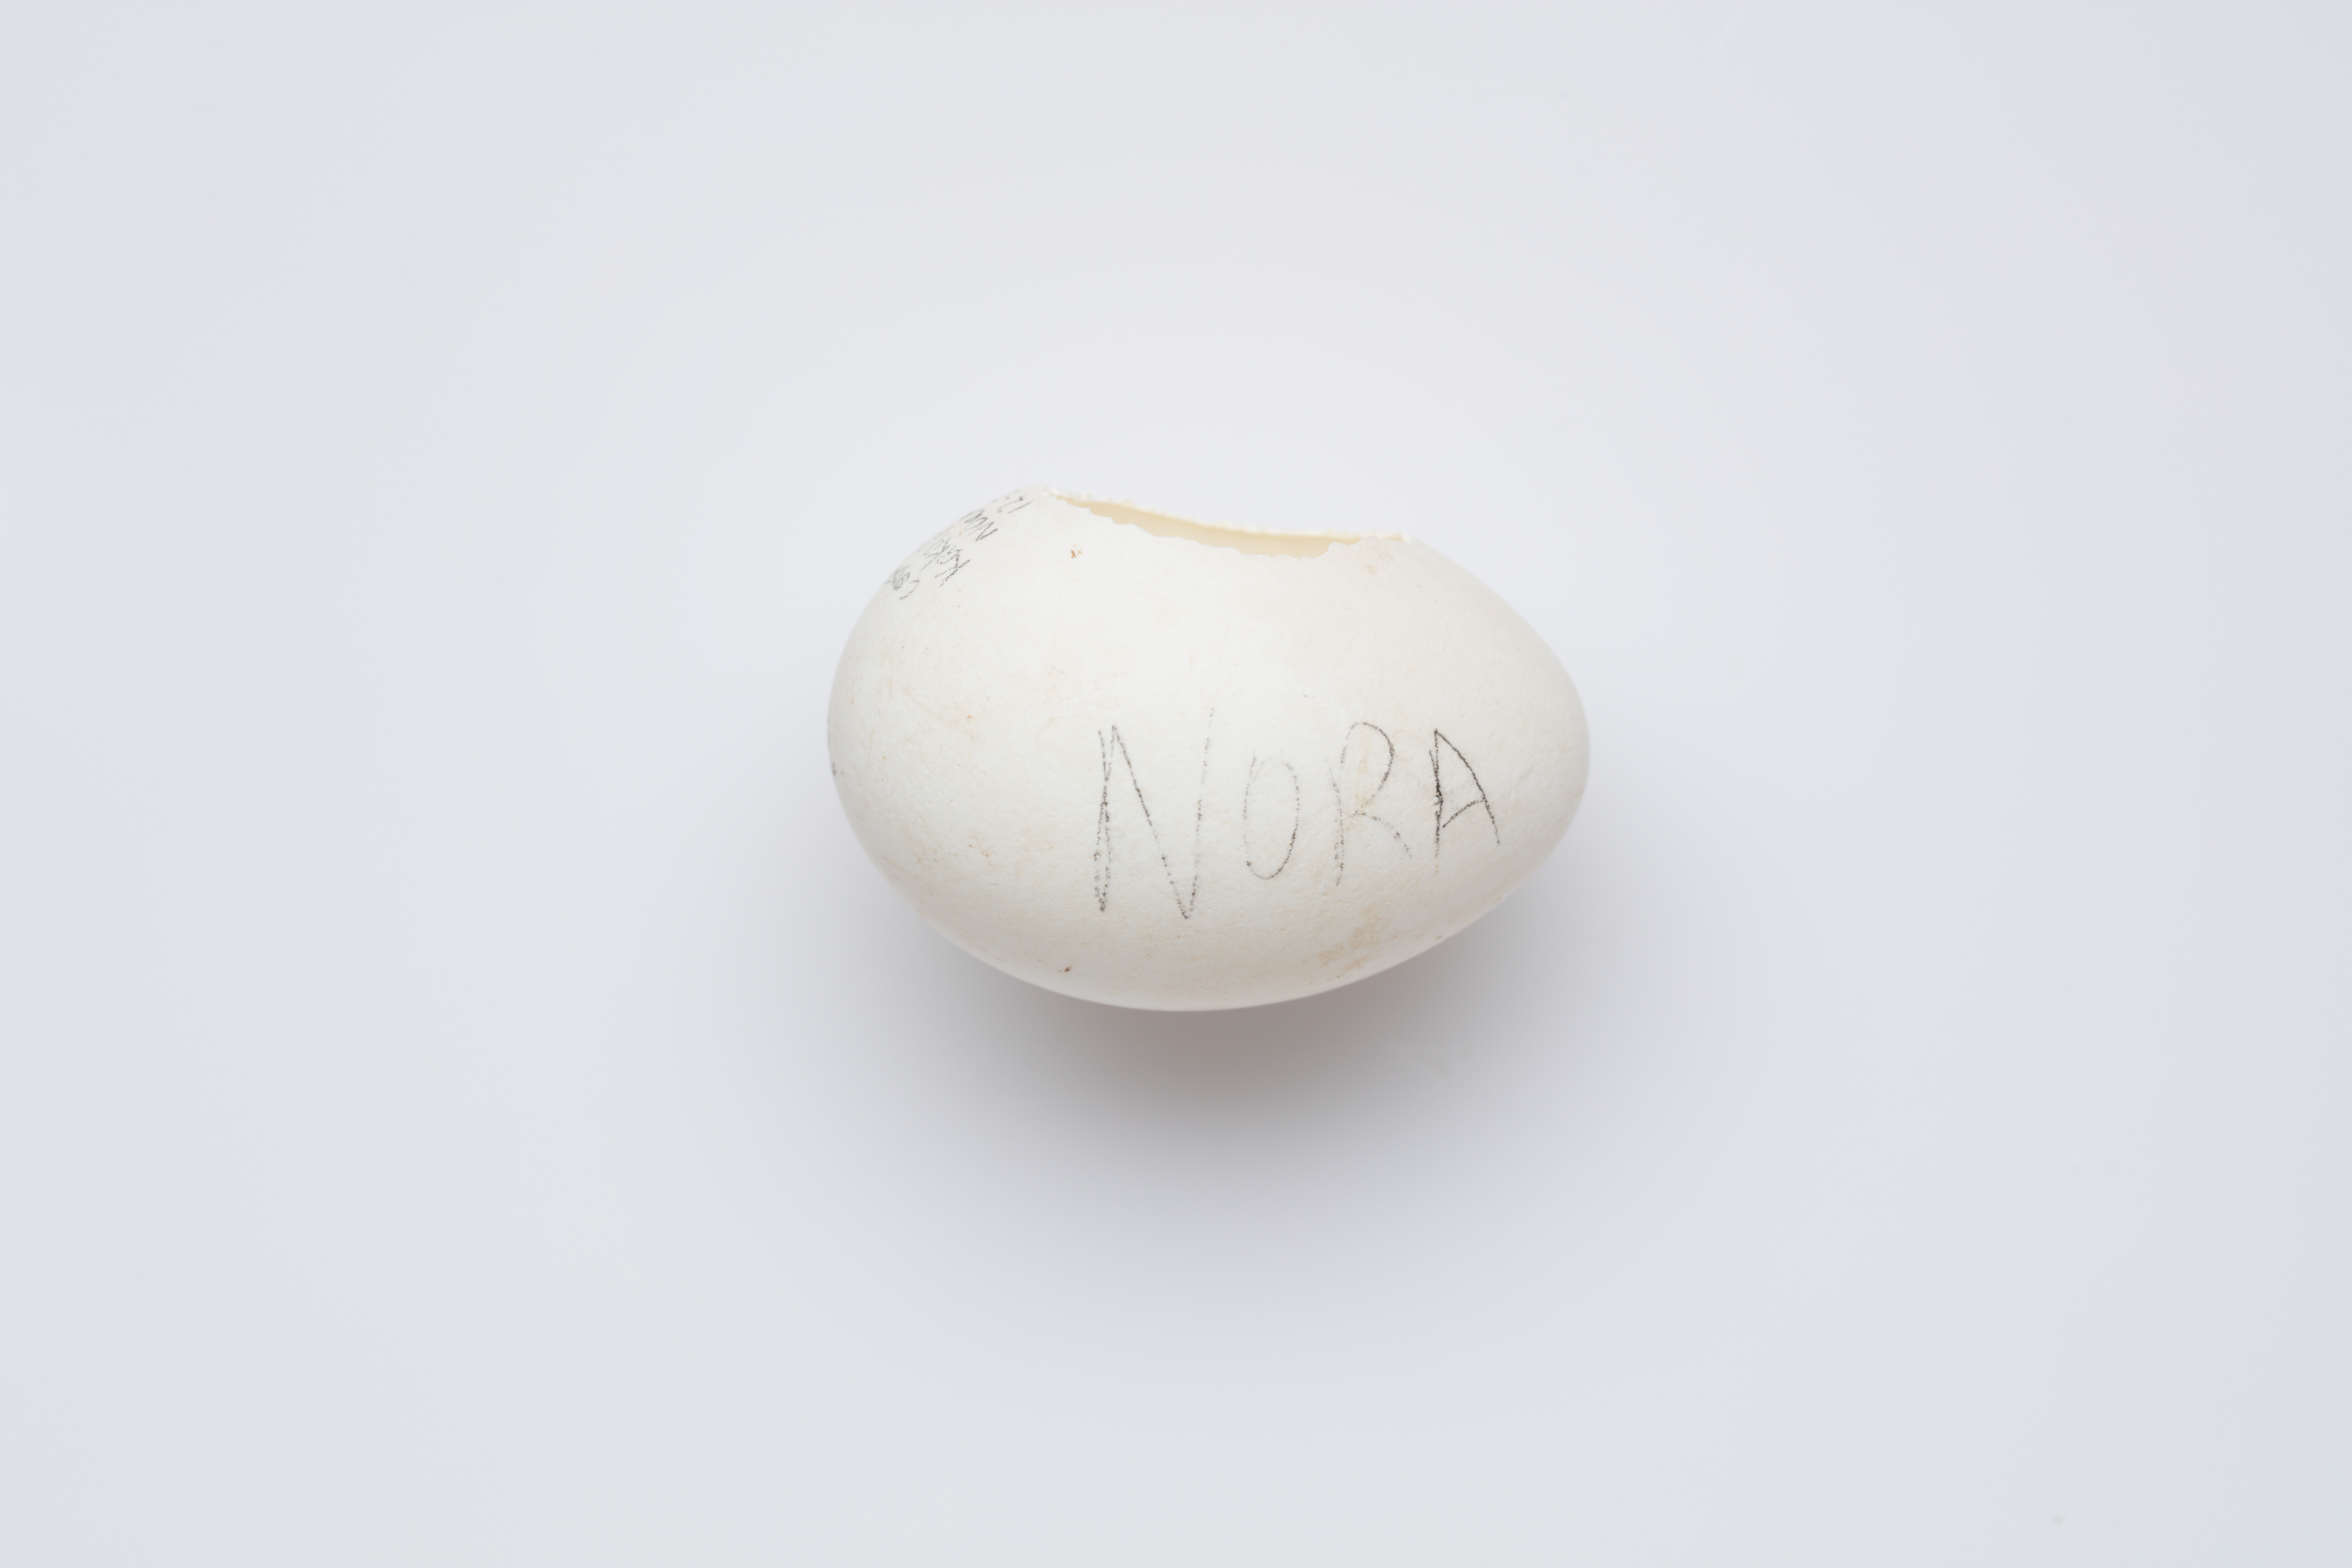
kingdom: Animalia
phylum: Chordata
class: Aves
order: Psittaciformes
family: Psittacidae
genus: Strigops
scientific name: Strigops habroptila
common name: Kakapo
